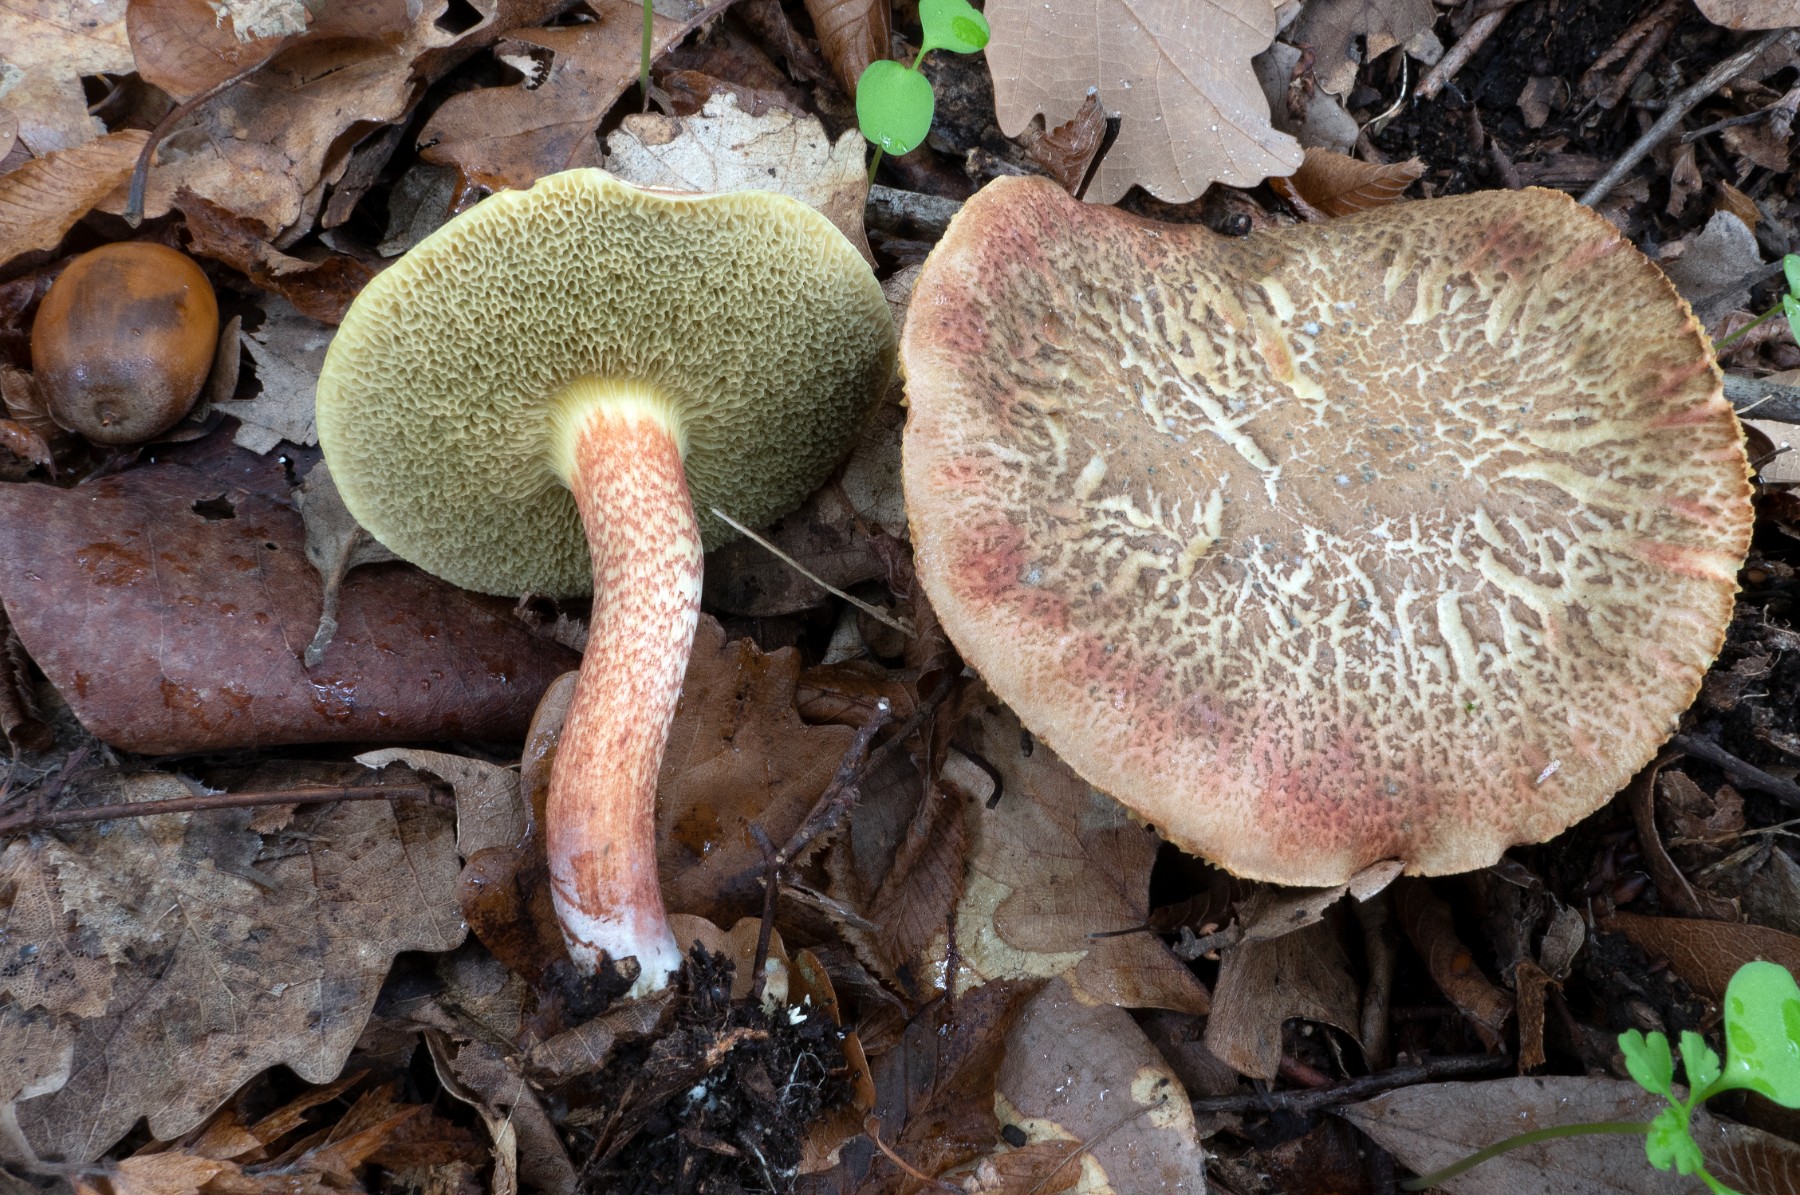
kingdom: Fungi
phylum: Basidiomycota
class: Agaricomycetes
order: Boletales
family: Boletaceae
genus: Xerocomellus
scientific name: Xerocomellus cisalpinus
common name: finsprukken rørhat
